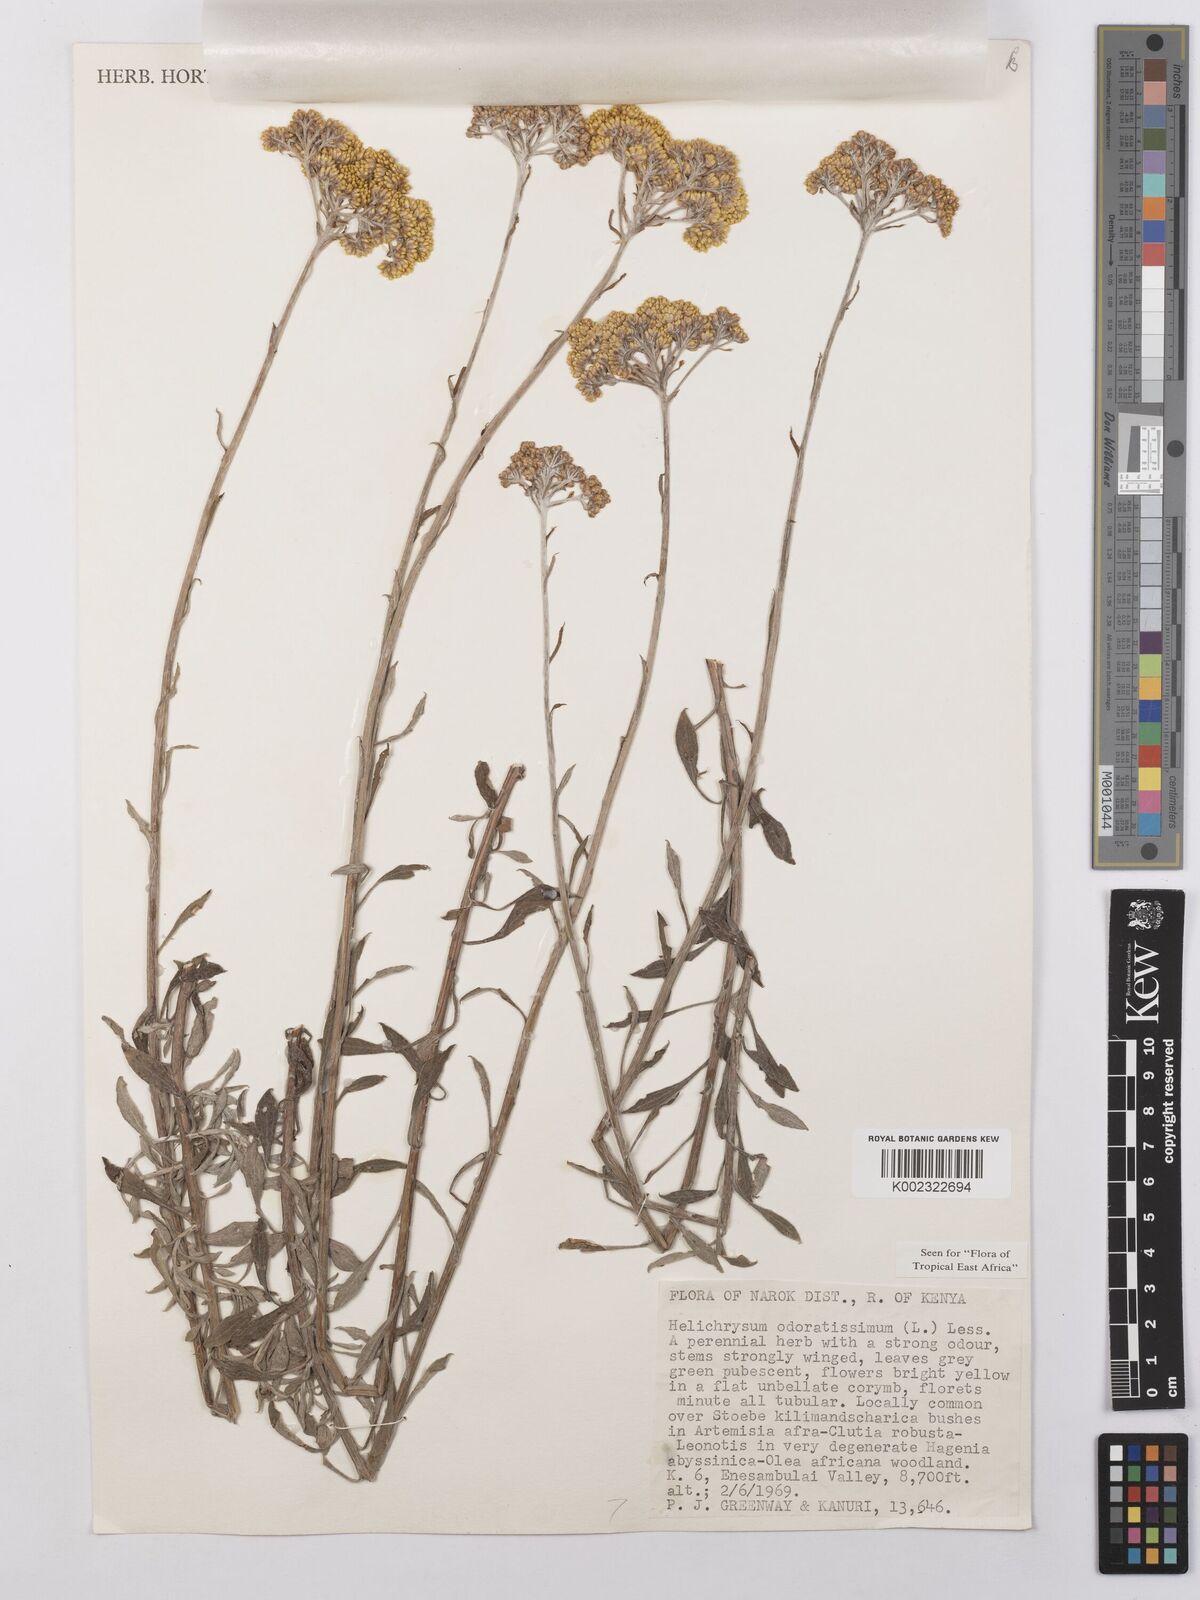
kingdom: Plantae
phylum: Tracheophyta
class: Magnoliopsida
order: Asterales
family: Asteraceae
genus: Helichrysum
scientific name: Helichrysum odoratissimum
